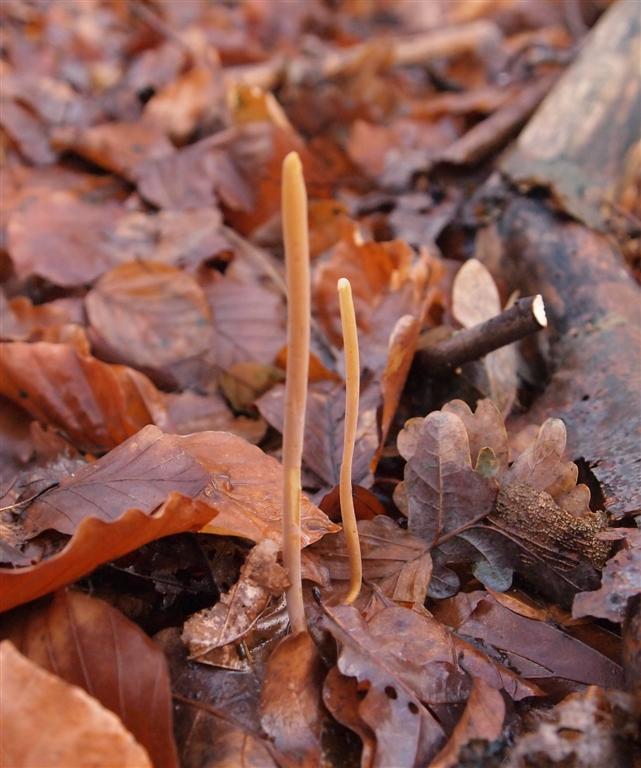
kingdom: Fungi
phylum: Basidiomycota
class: Agaricomycetes
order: Agaricales
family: Typhulaceae
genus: Typhula
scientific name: Typhula fistulosa
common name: pibet rørkølle
